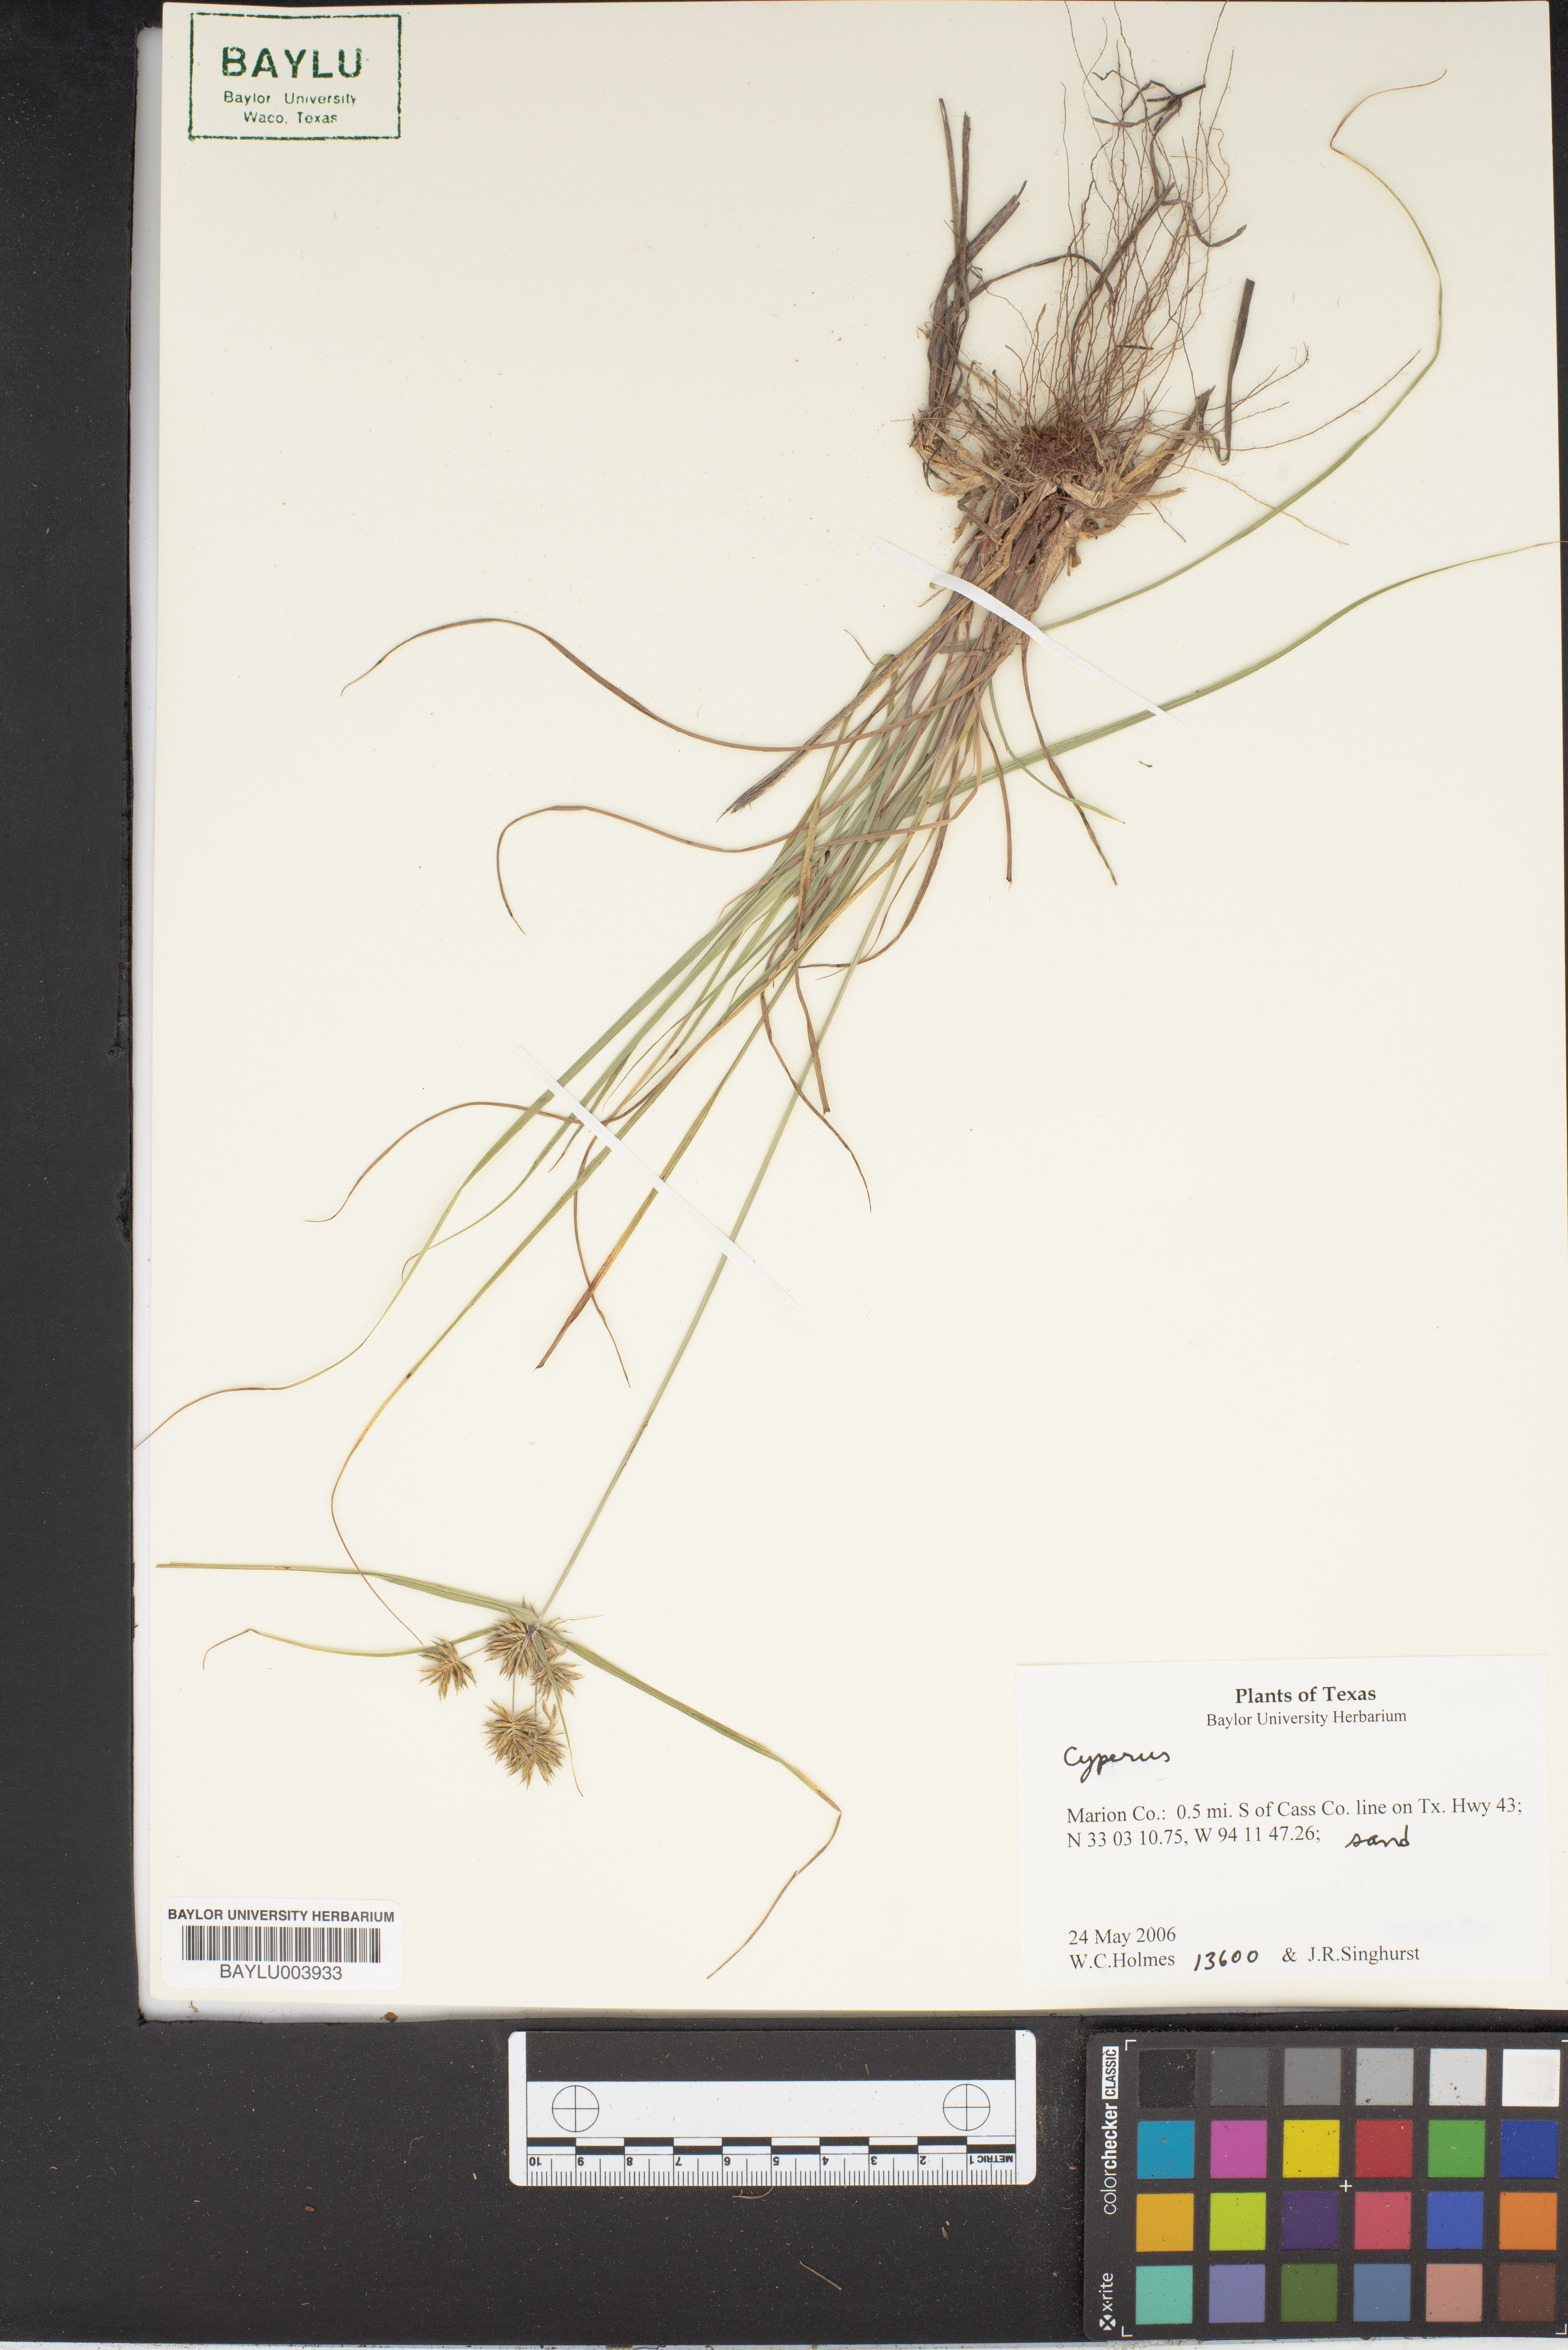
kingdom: Plantae
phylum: Tracheophyta
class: Liliopsida
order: Poales
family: Cyperaceae
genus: Cyperus
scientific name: Cyperus
